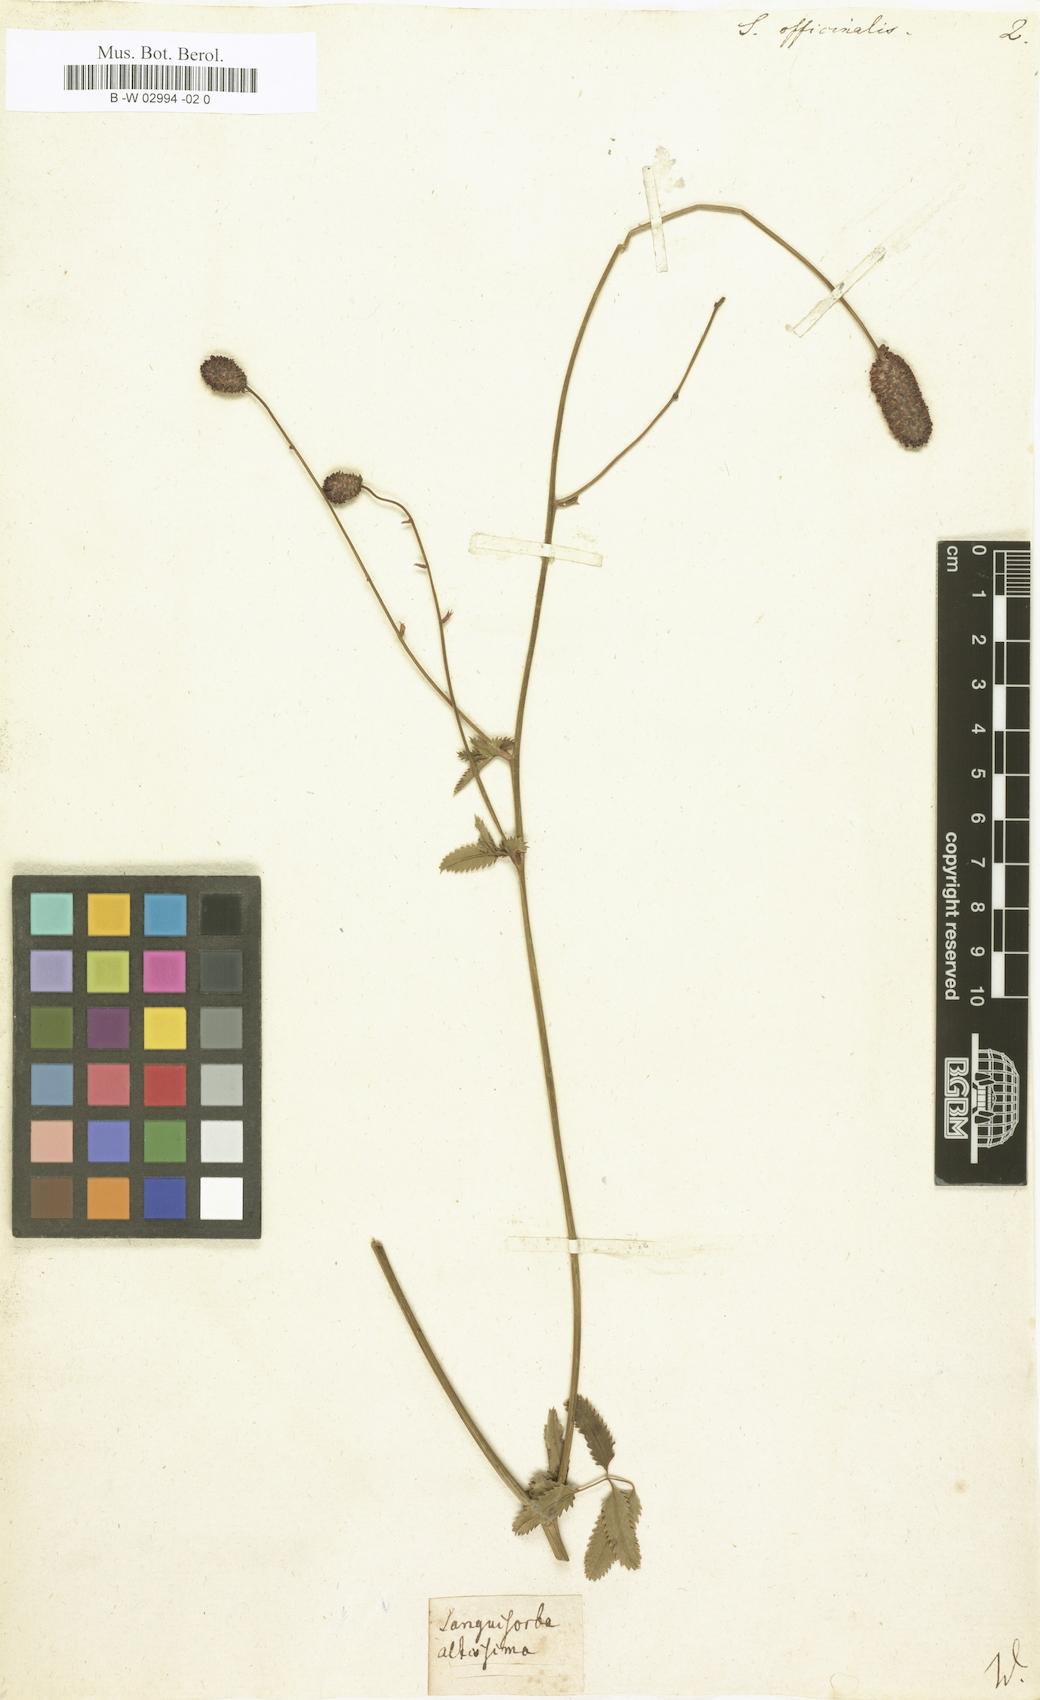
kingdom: Plantae
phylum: Tracheophyta
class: Magnoliopsida
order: Rosales
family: Rosaceae
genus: Sanguisorba
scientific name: Sanguisorba officinalis
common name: Great burnet
